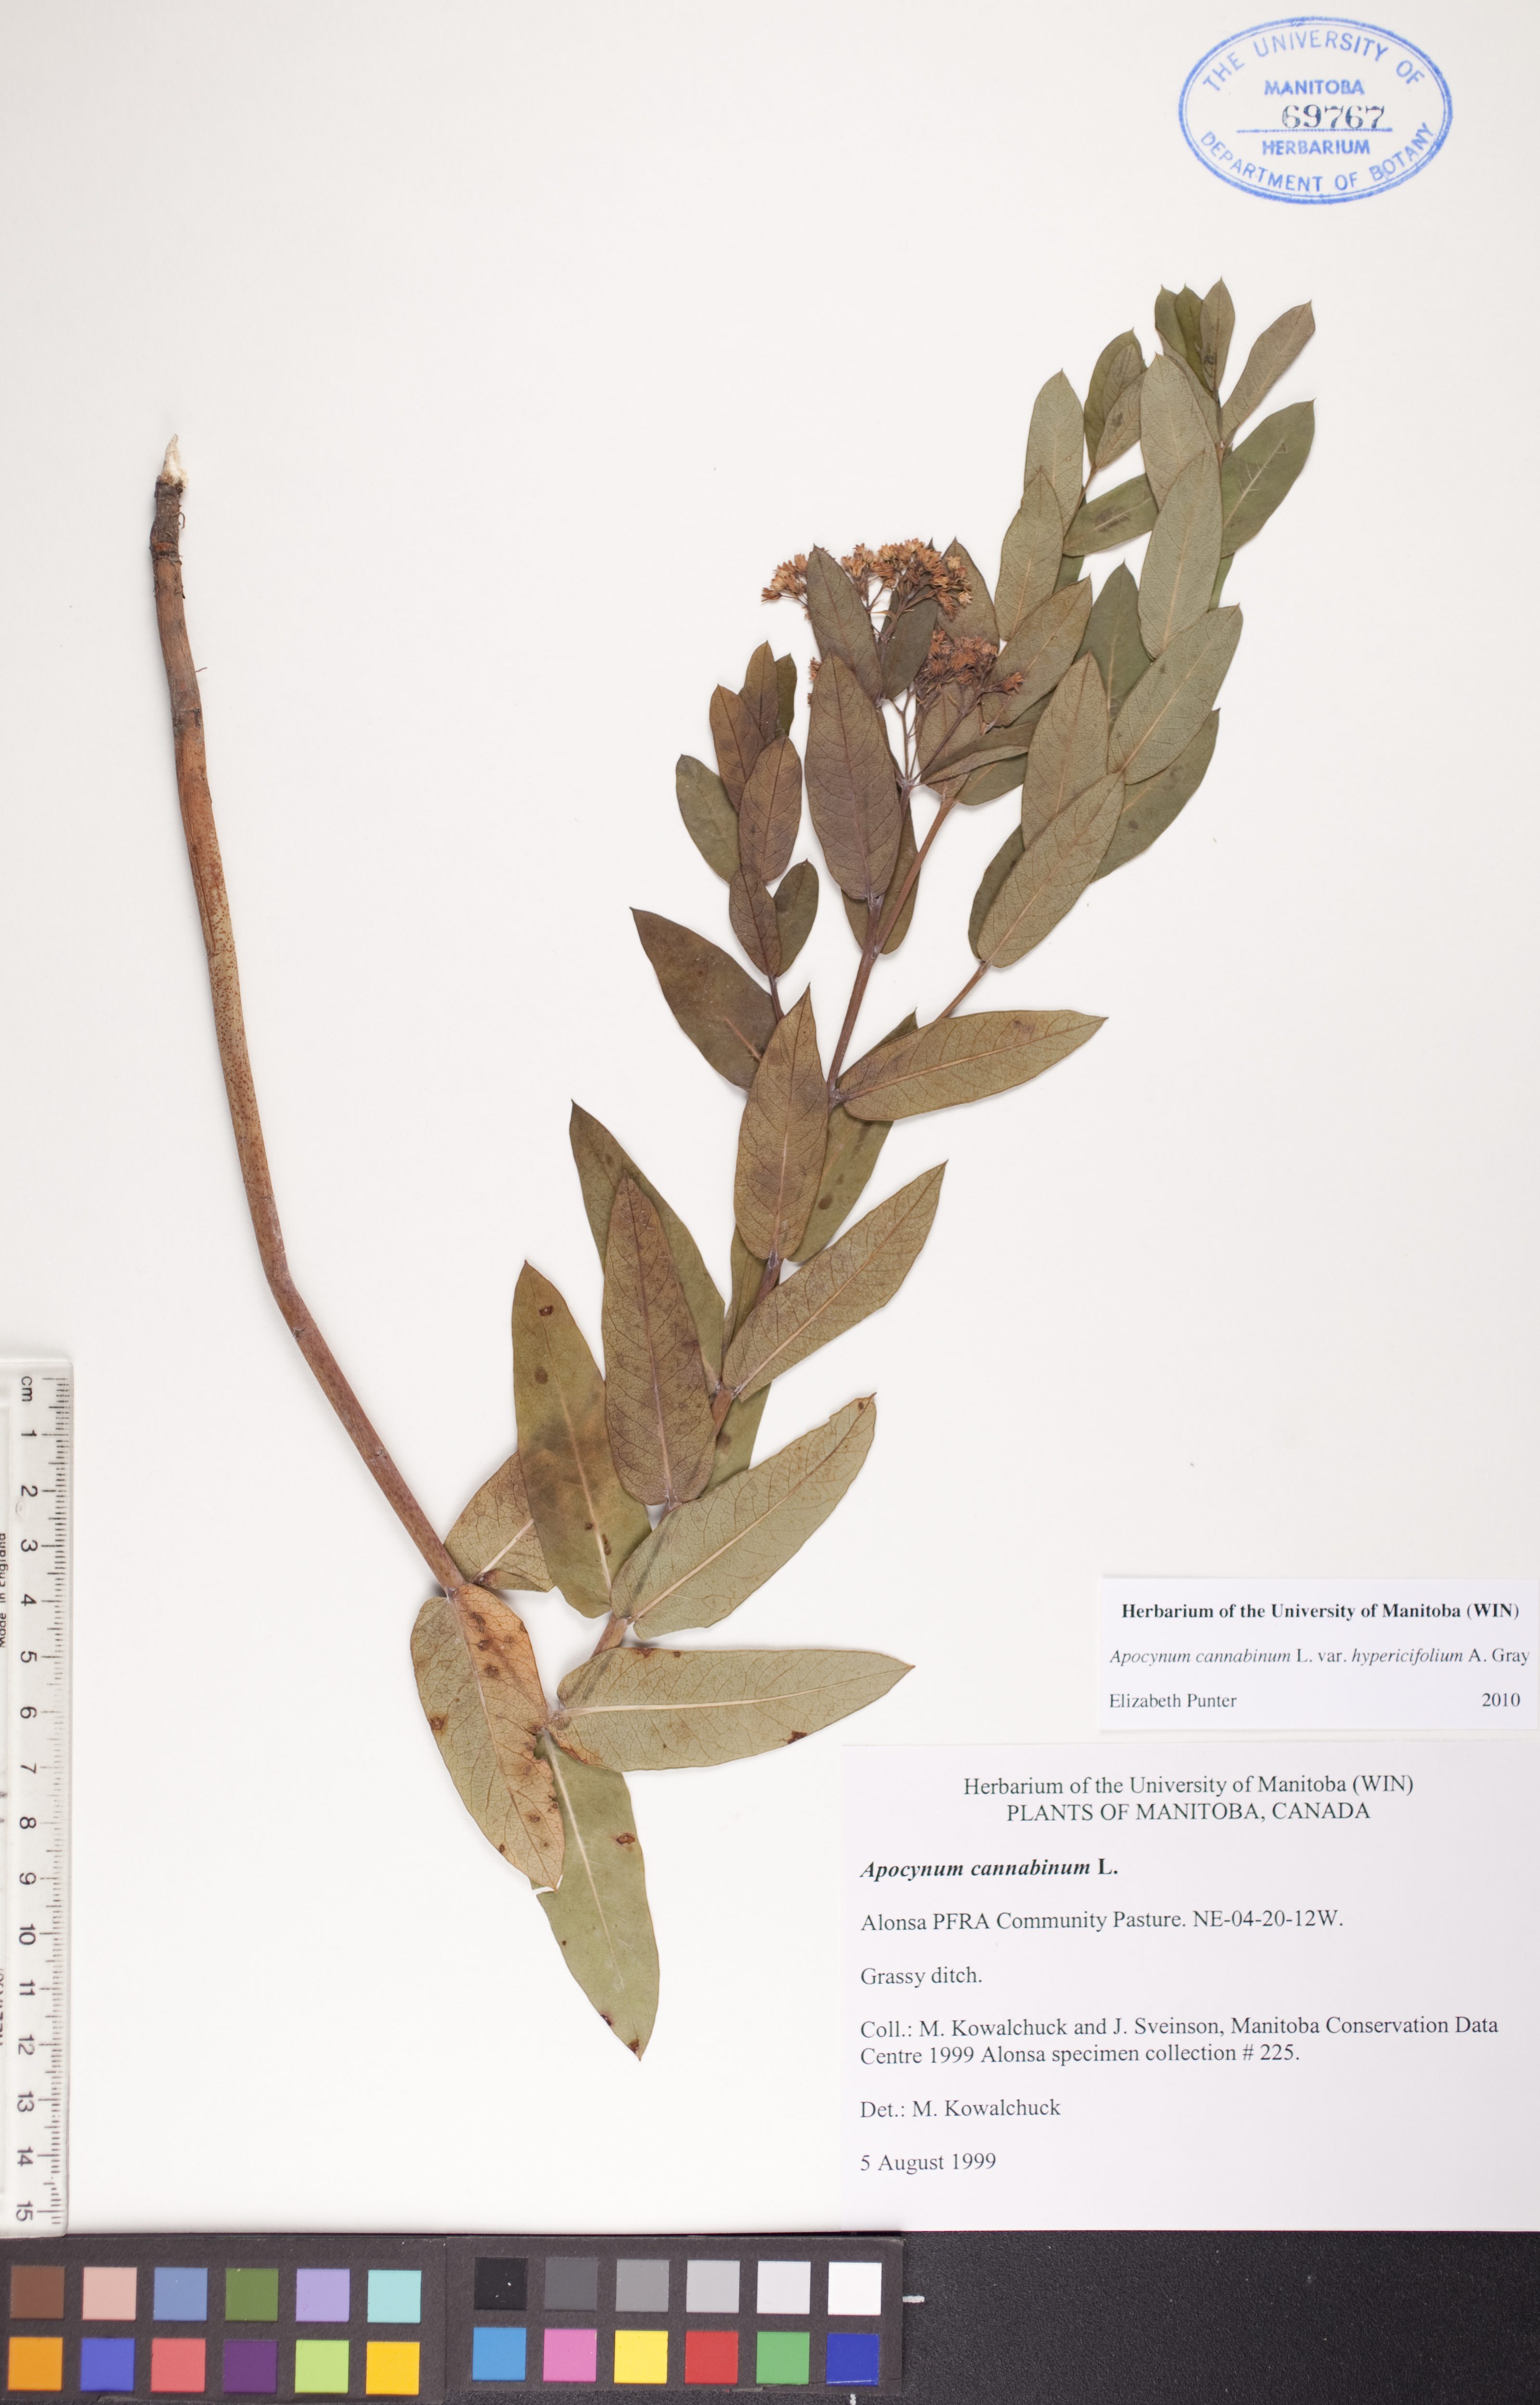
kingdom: Plantae
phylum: Tracheophyta
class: Magnoliopsida
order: Gentianales
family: Apocynaceae
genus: Apocynum
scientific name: Apocynum cannabinum
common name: Hemp dogbane
